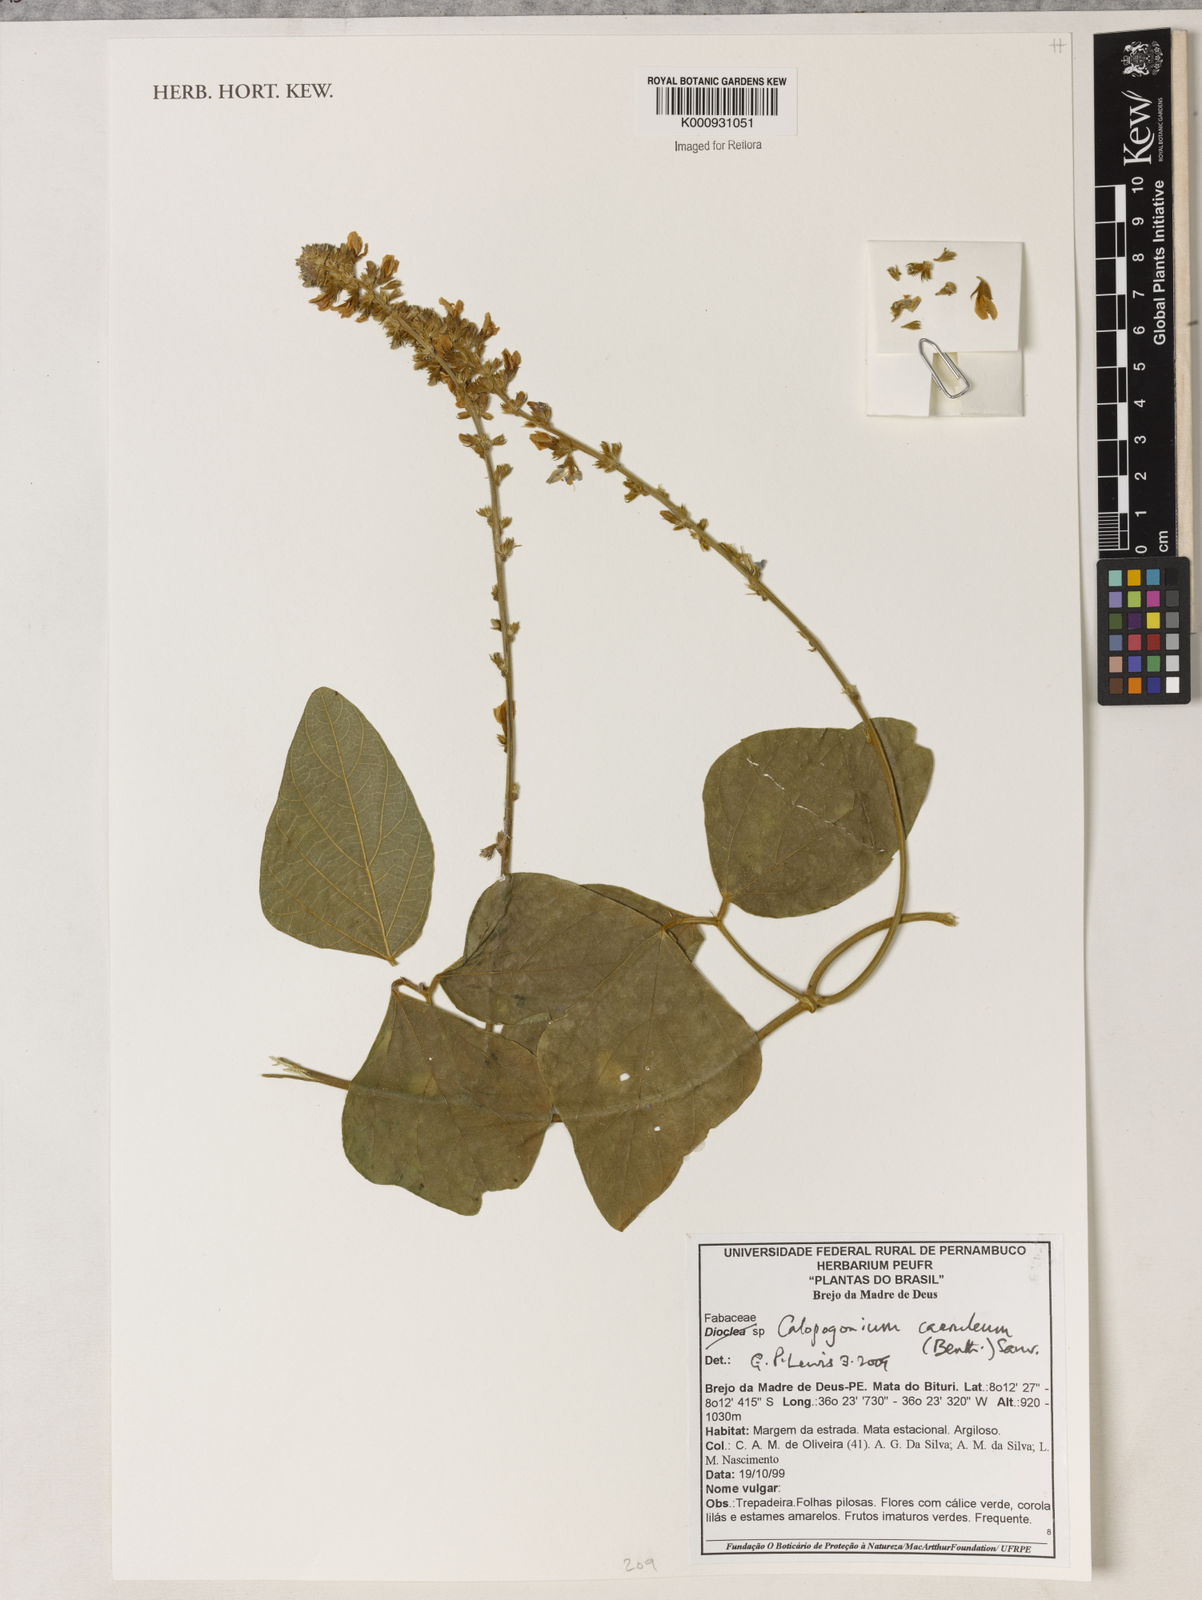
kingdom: Plantae
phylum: Tracheophyta
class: Magnoliopsida
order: Fabales
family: Fabaceae
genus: Calopogonium
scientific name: Calopogonium caeruleum
